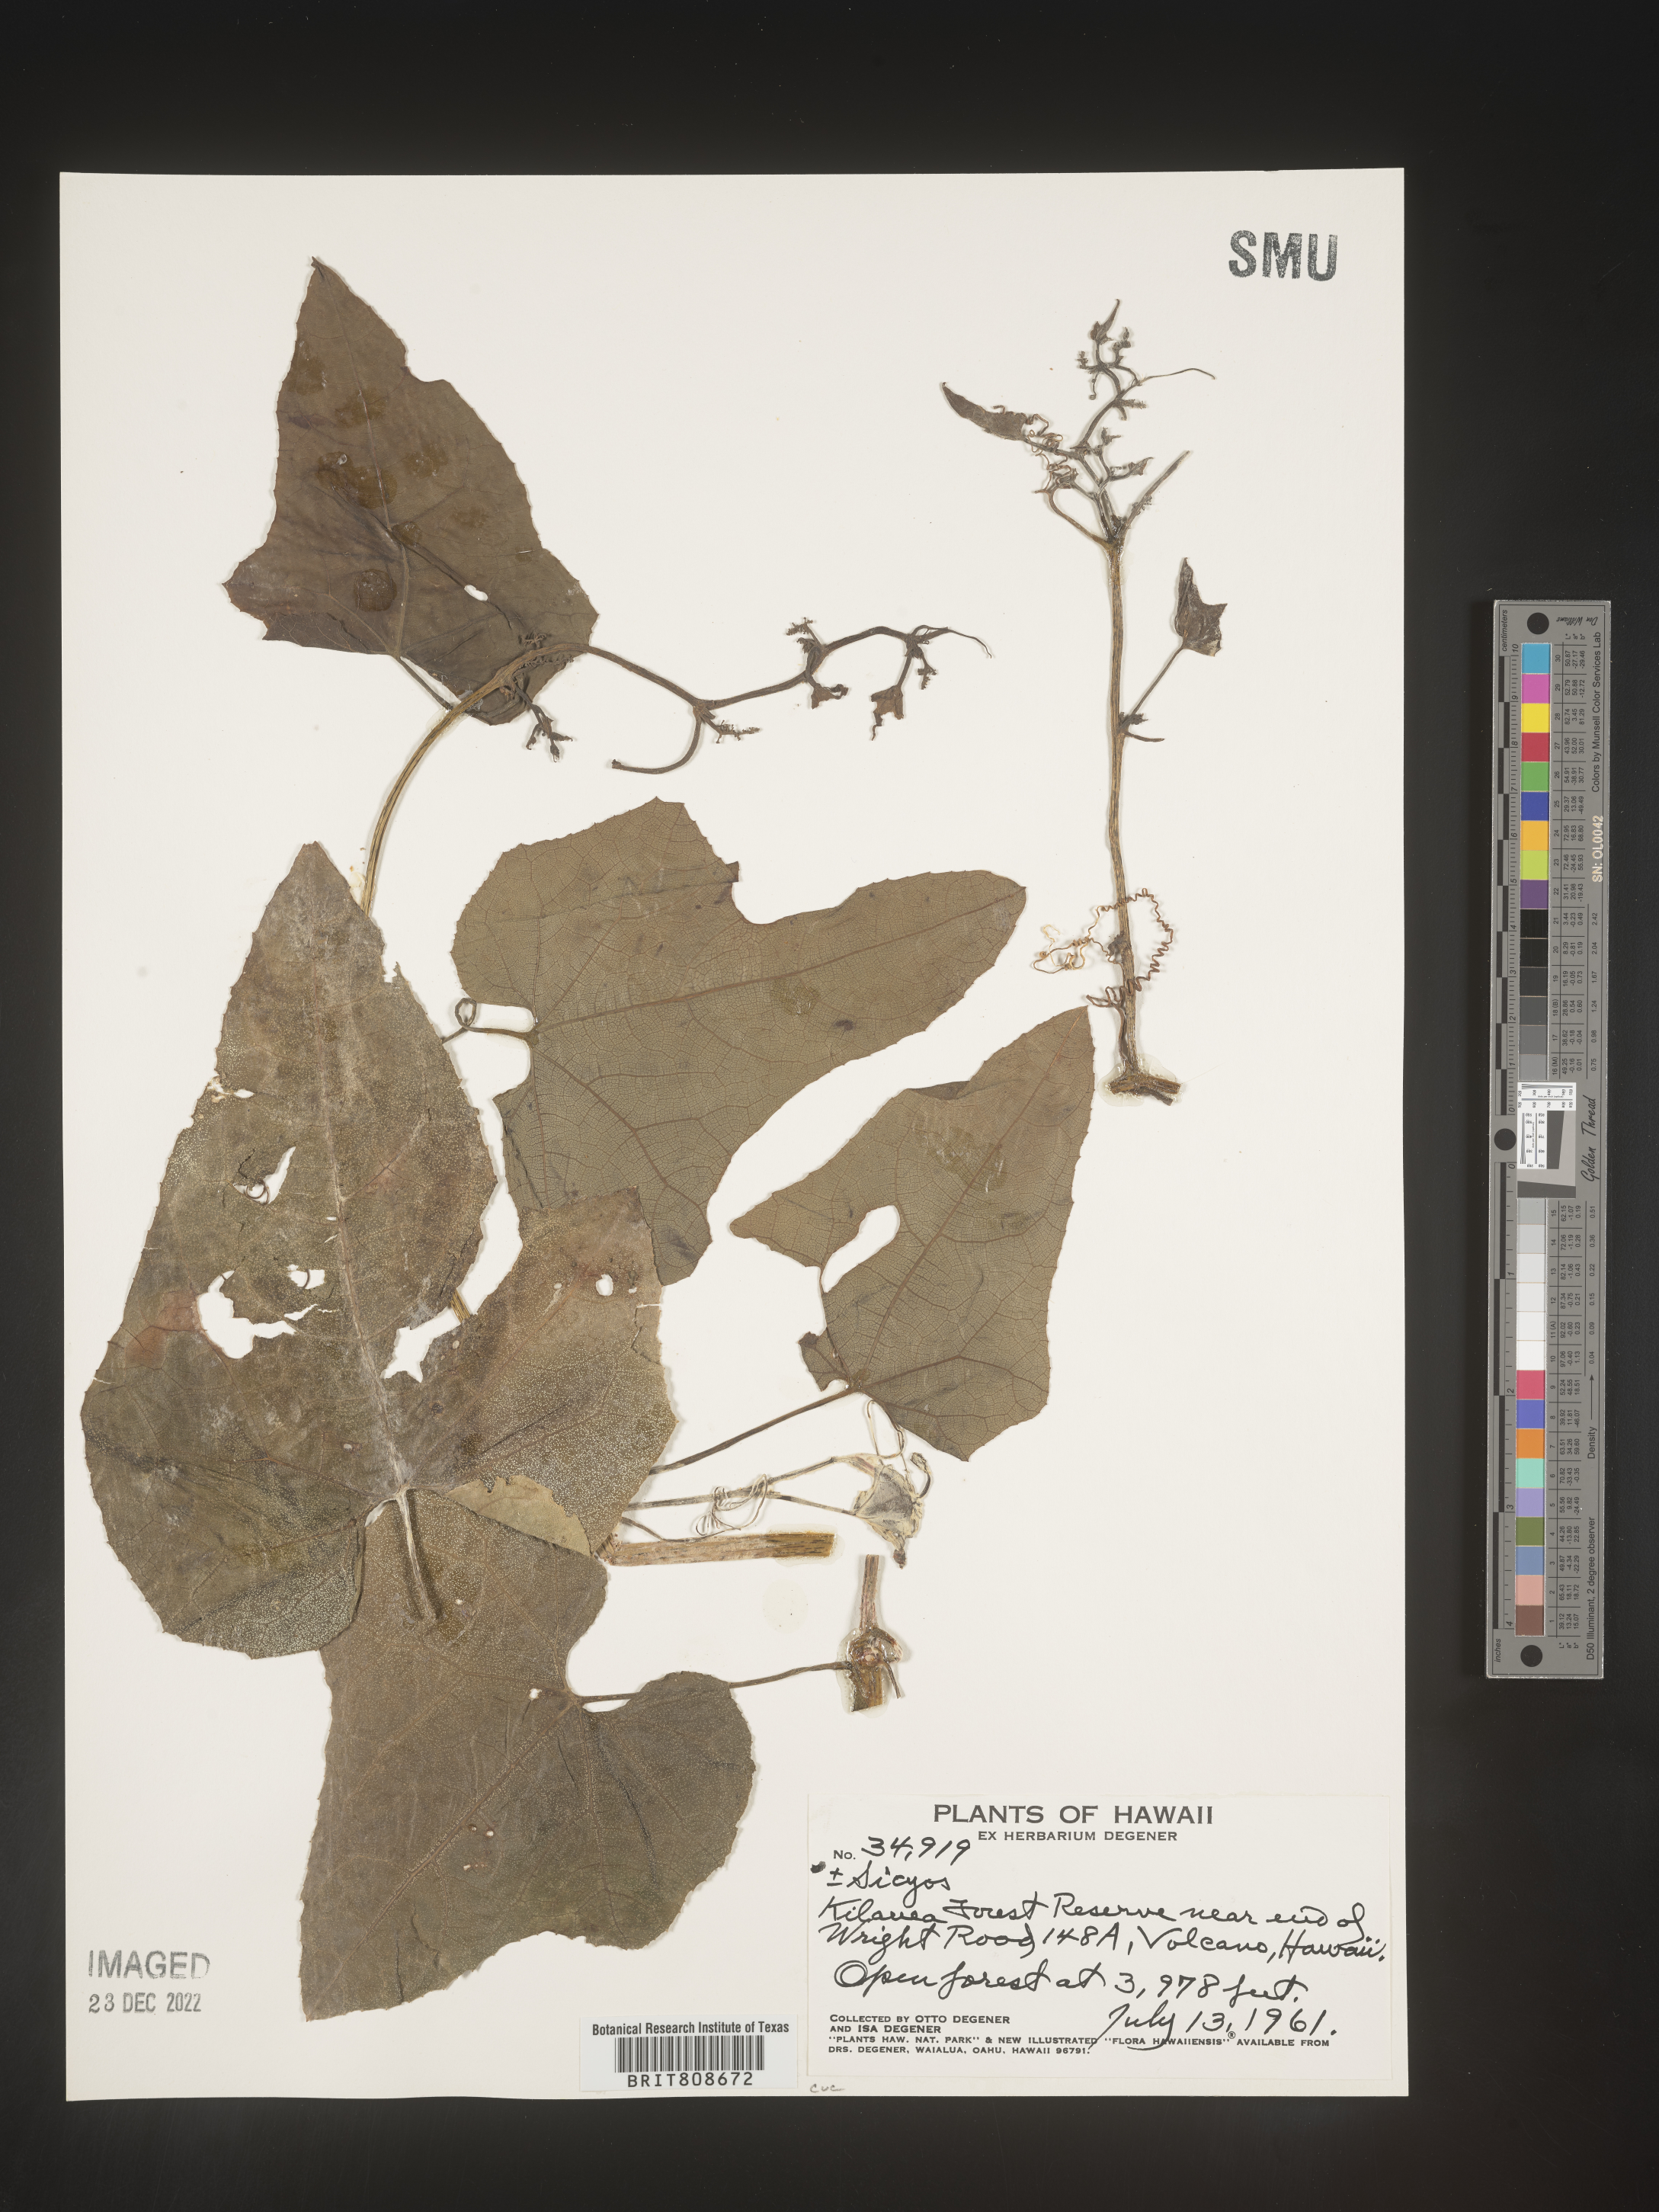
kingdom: Plantae
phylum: Tracheophyta
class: Magnoliopsida
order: Cucurbitales
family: Cucurbitaceae
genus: Sicyos
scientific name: Sicyos
